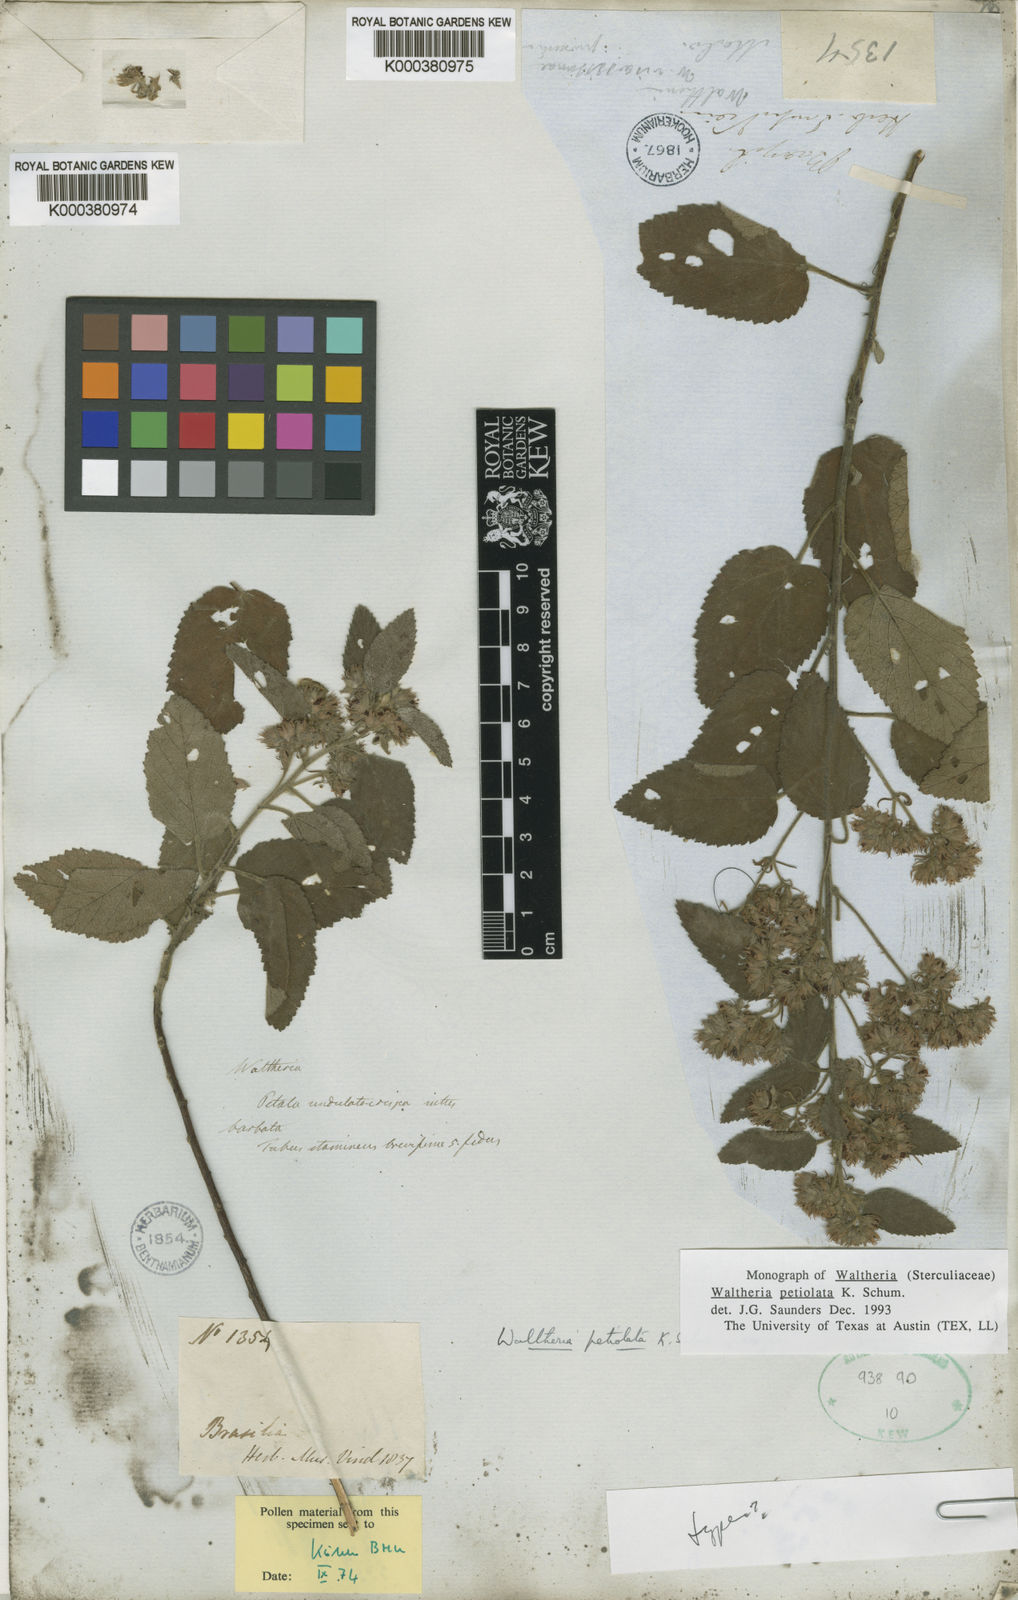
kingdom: Plantae
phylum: Tracheophyta
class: Magnoliopsida
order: Malvales
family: Malvaceae
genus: Waltheria
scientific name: Waltheria petiolata
